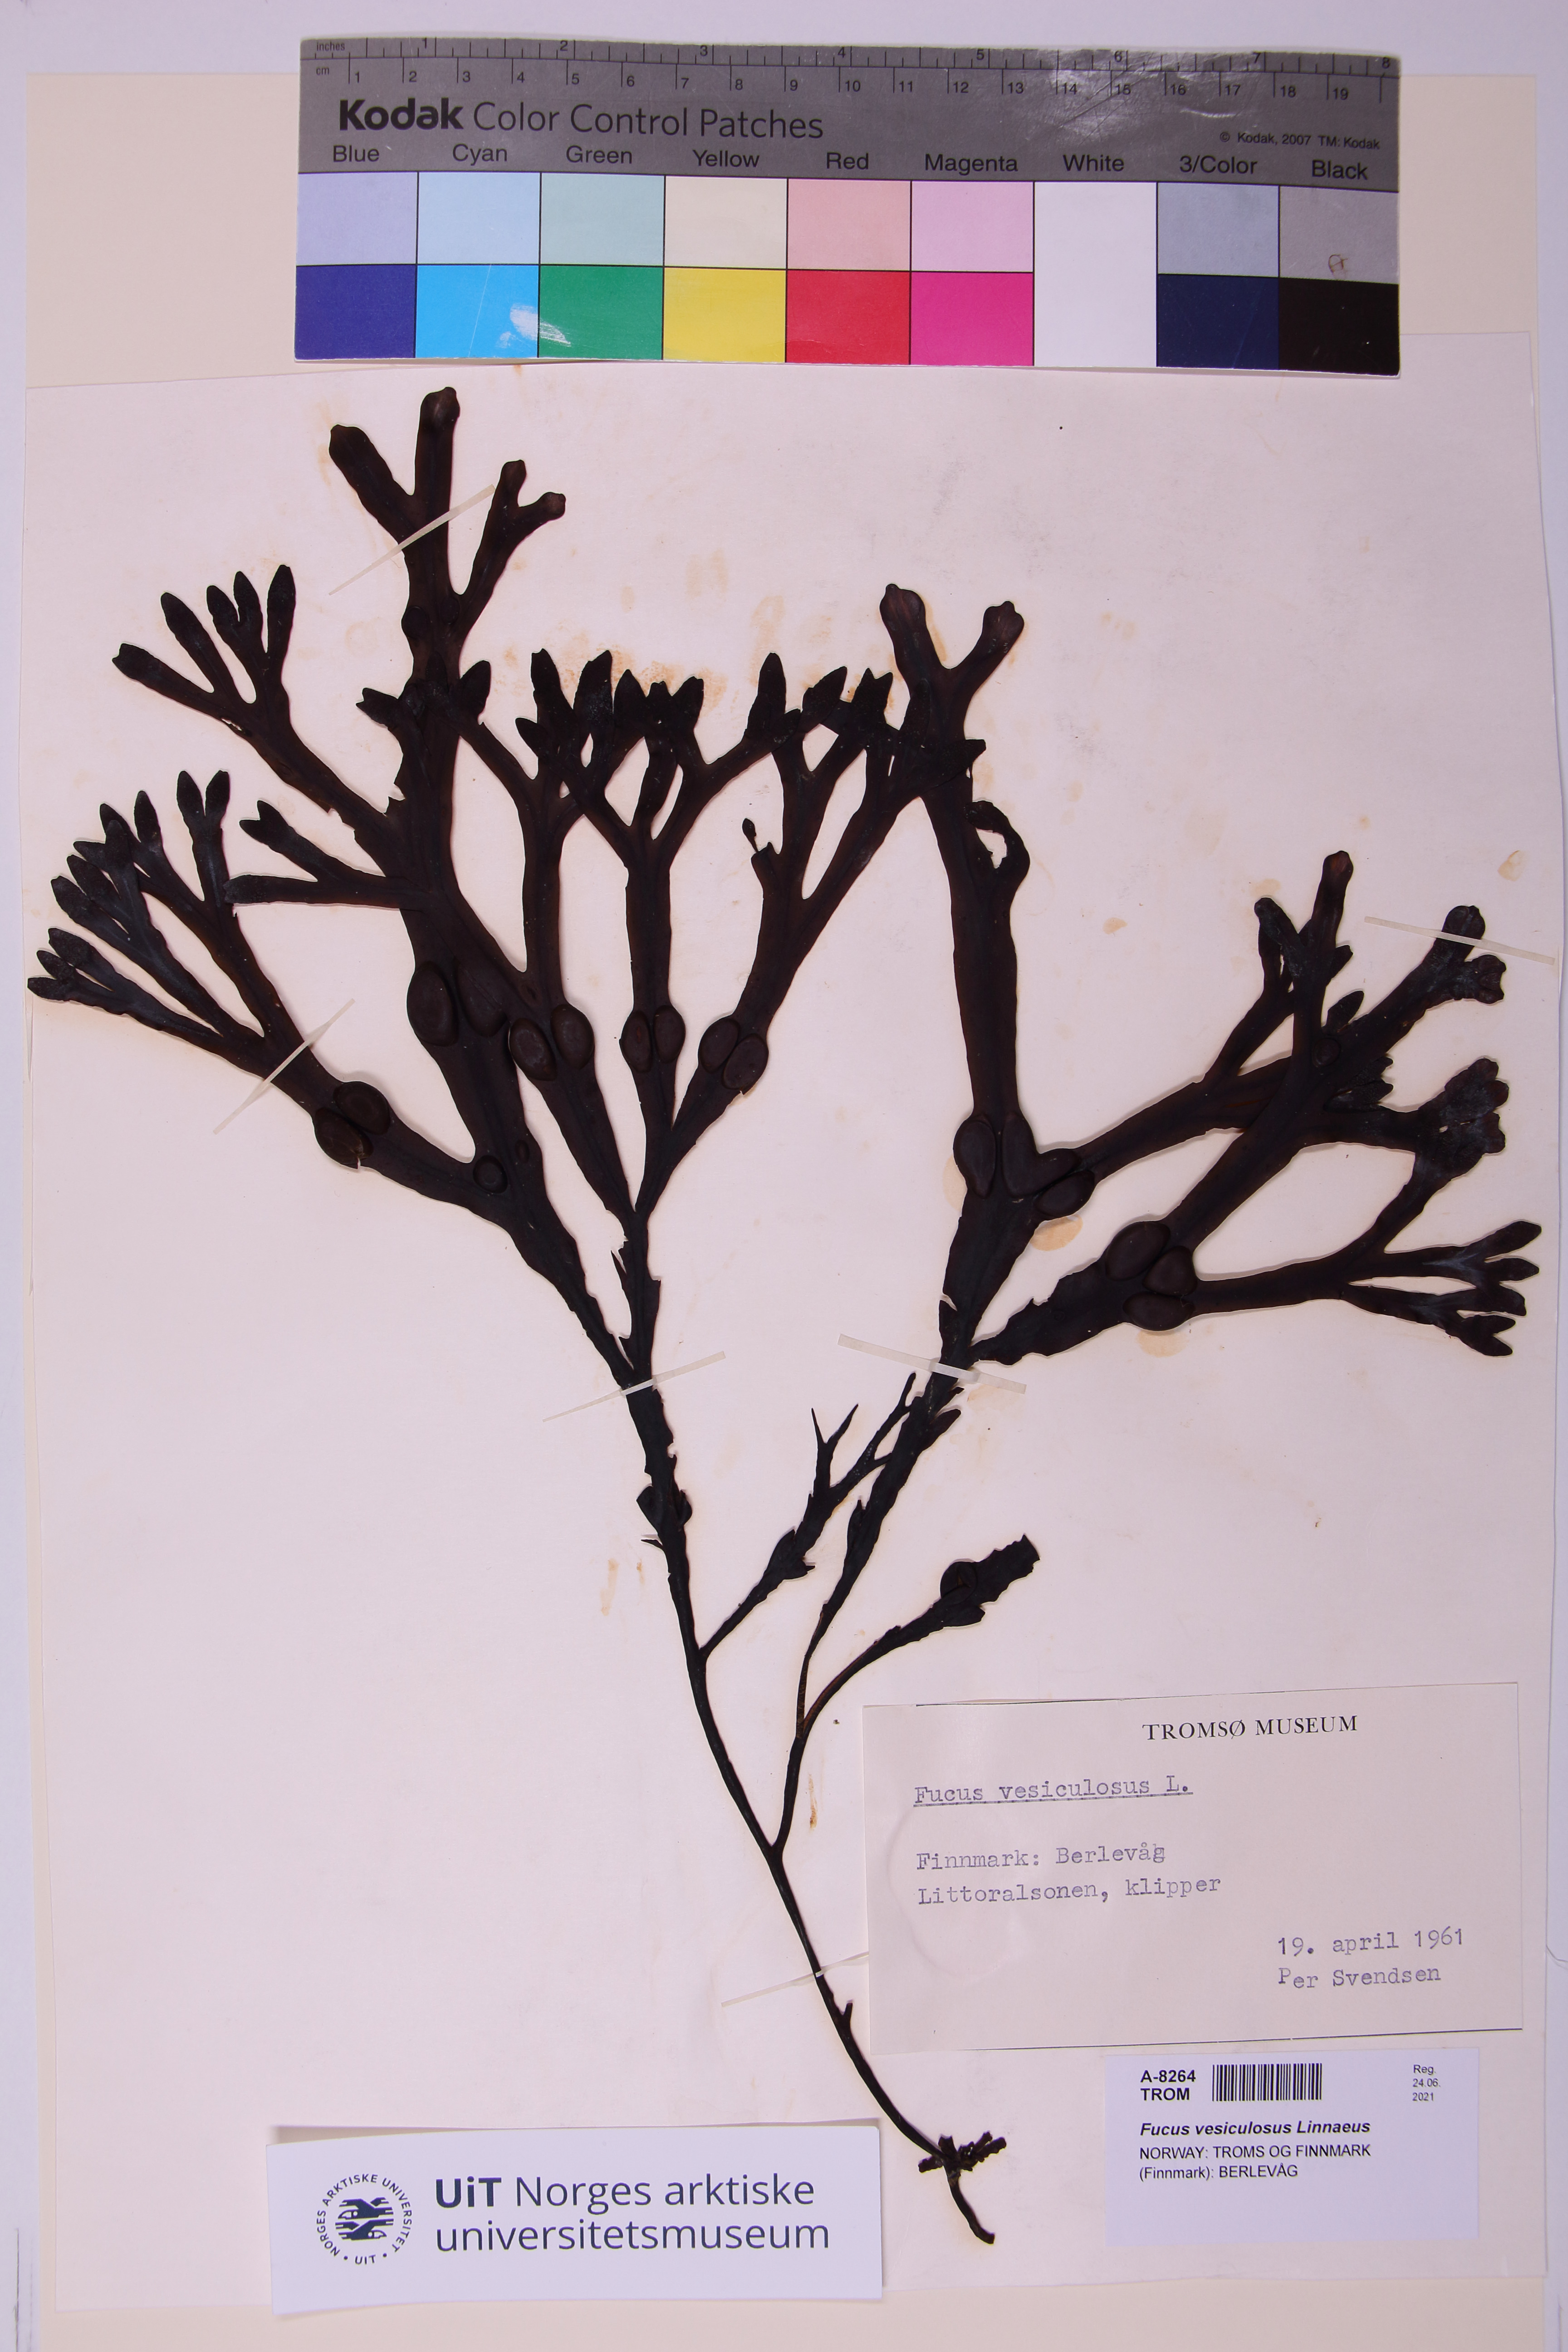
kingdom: Chromista
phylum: Ochrophyta
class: Phaeophyceae
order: Fucales
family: Fucaceae
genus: Fucus
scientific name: Fucus vesiculosus
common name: Bladder wrack
